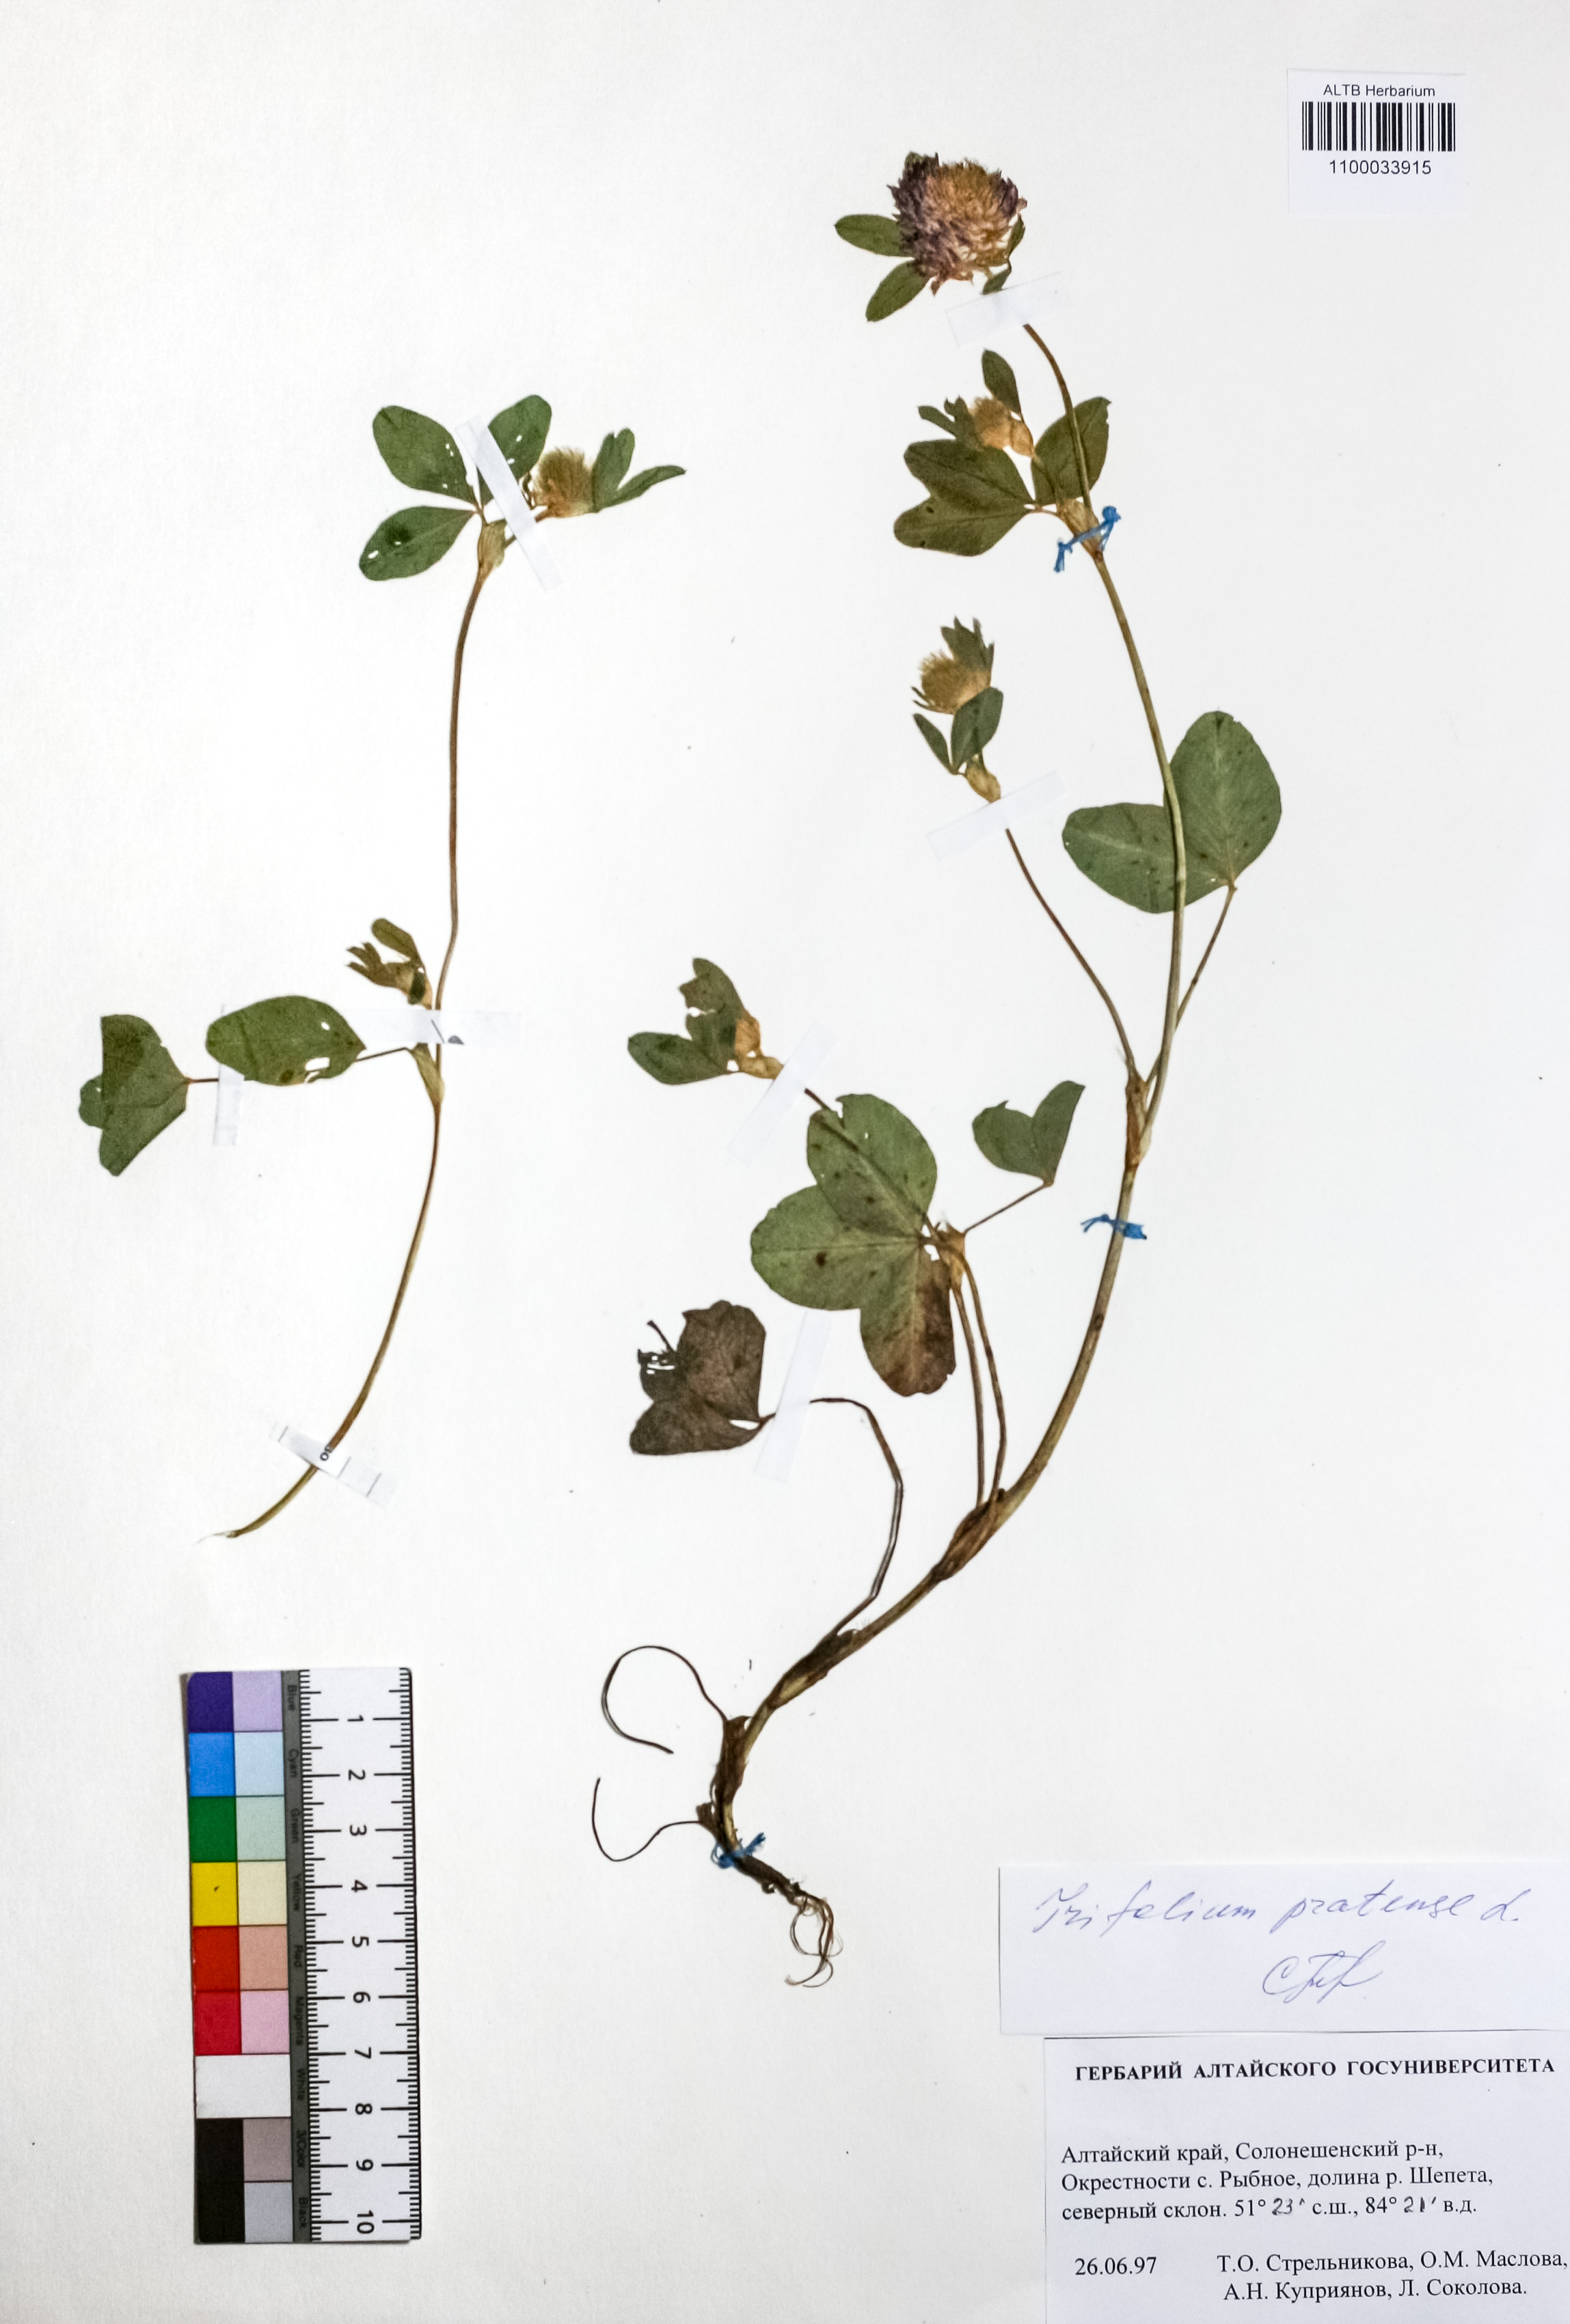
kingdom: Plantae
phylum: Tracheophyta
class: Magnoliopsida
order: Fabales
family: Fabaceae
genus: Trifolium
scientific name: Trifolium pratense
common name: Red clover
